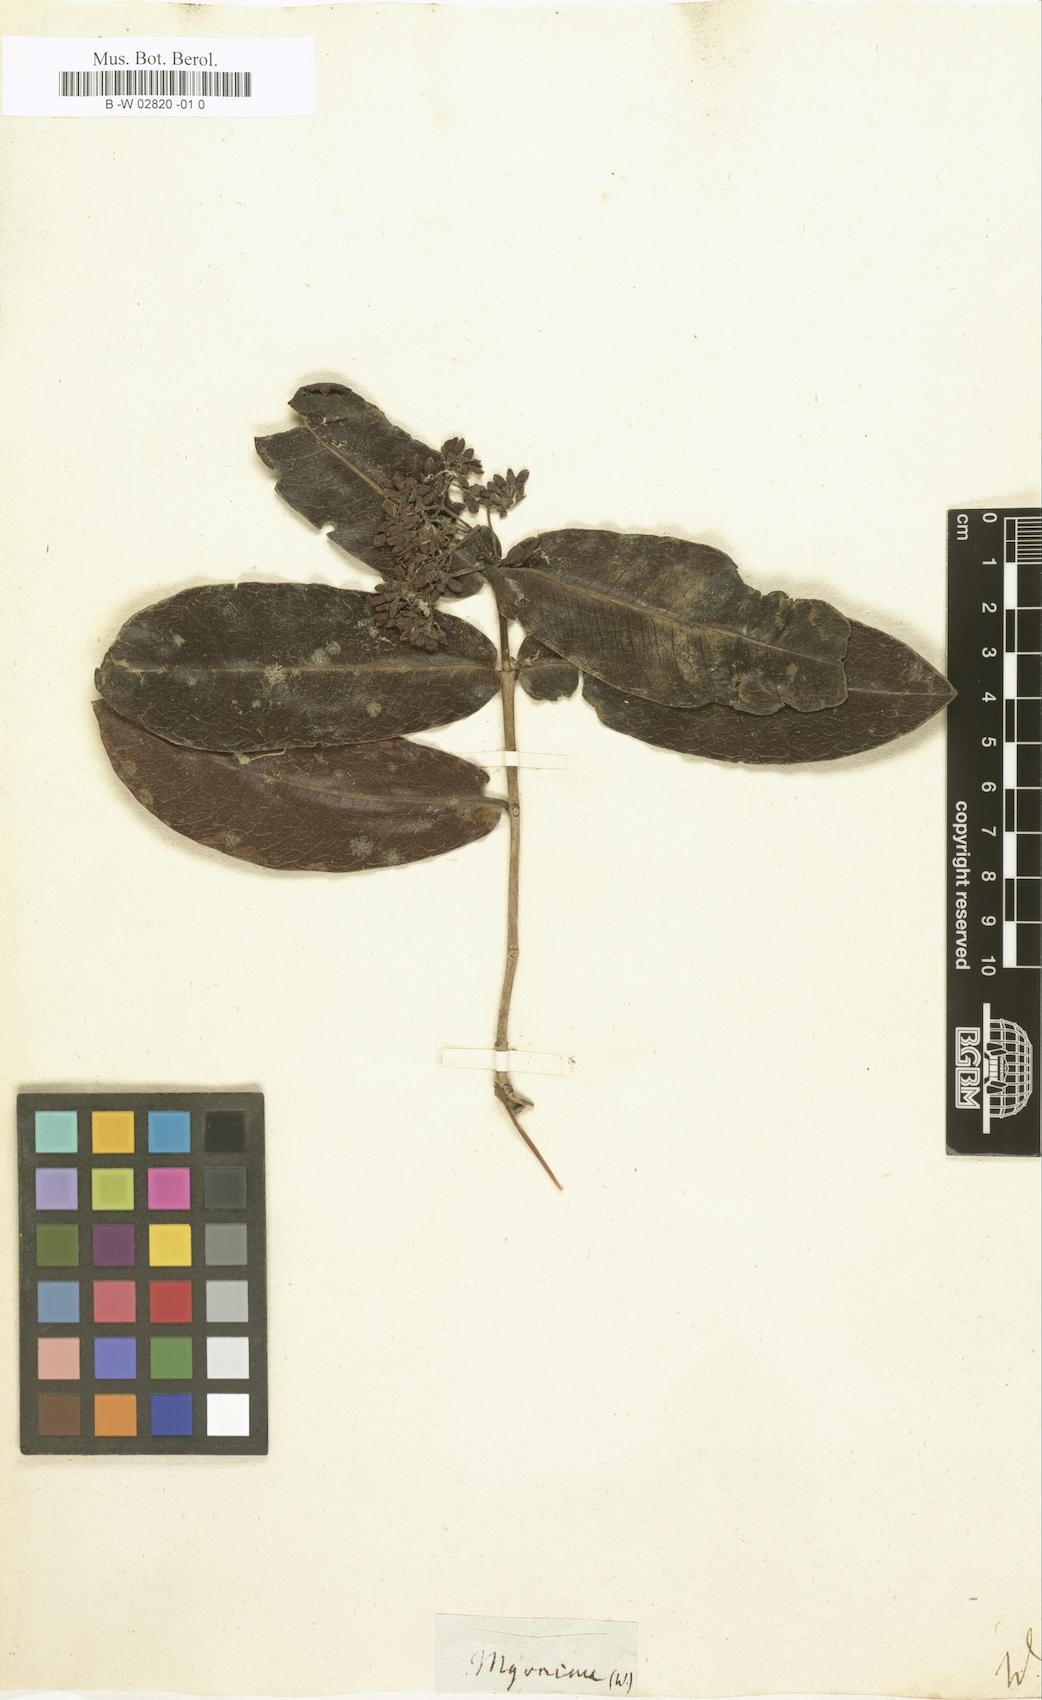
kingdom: Plantae
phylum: Tracheophyta
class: Magnoliopsida
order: Gentianales
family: Rubiaceae
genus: Ixora
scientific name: Ixora Myonima cordata
